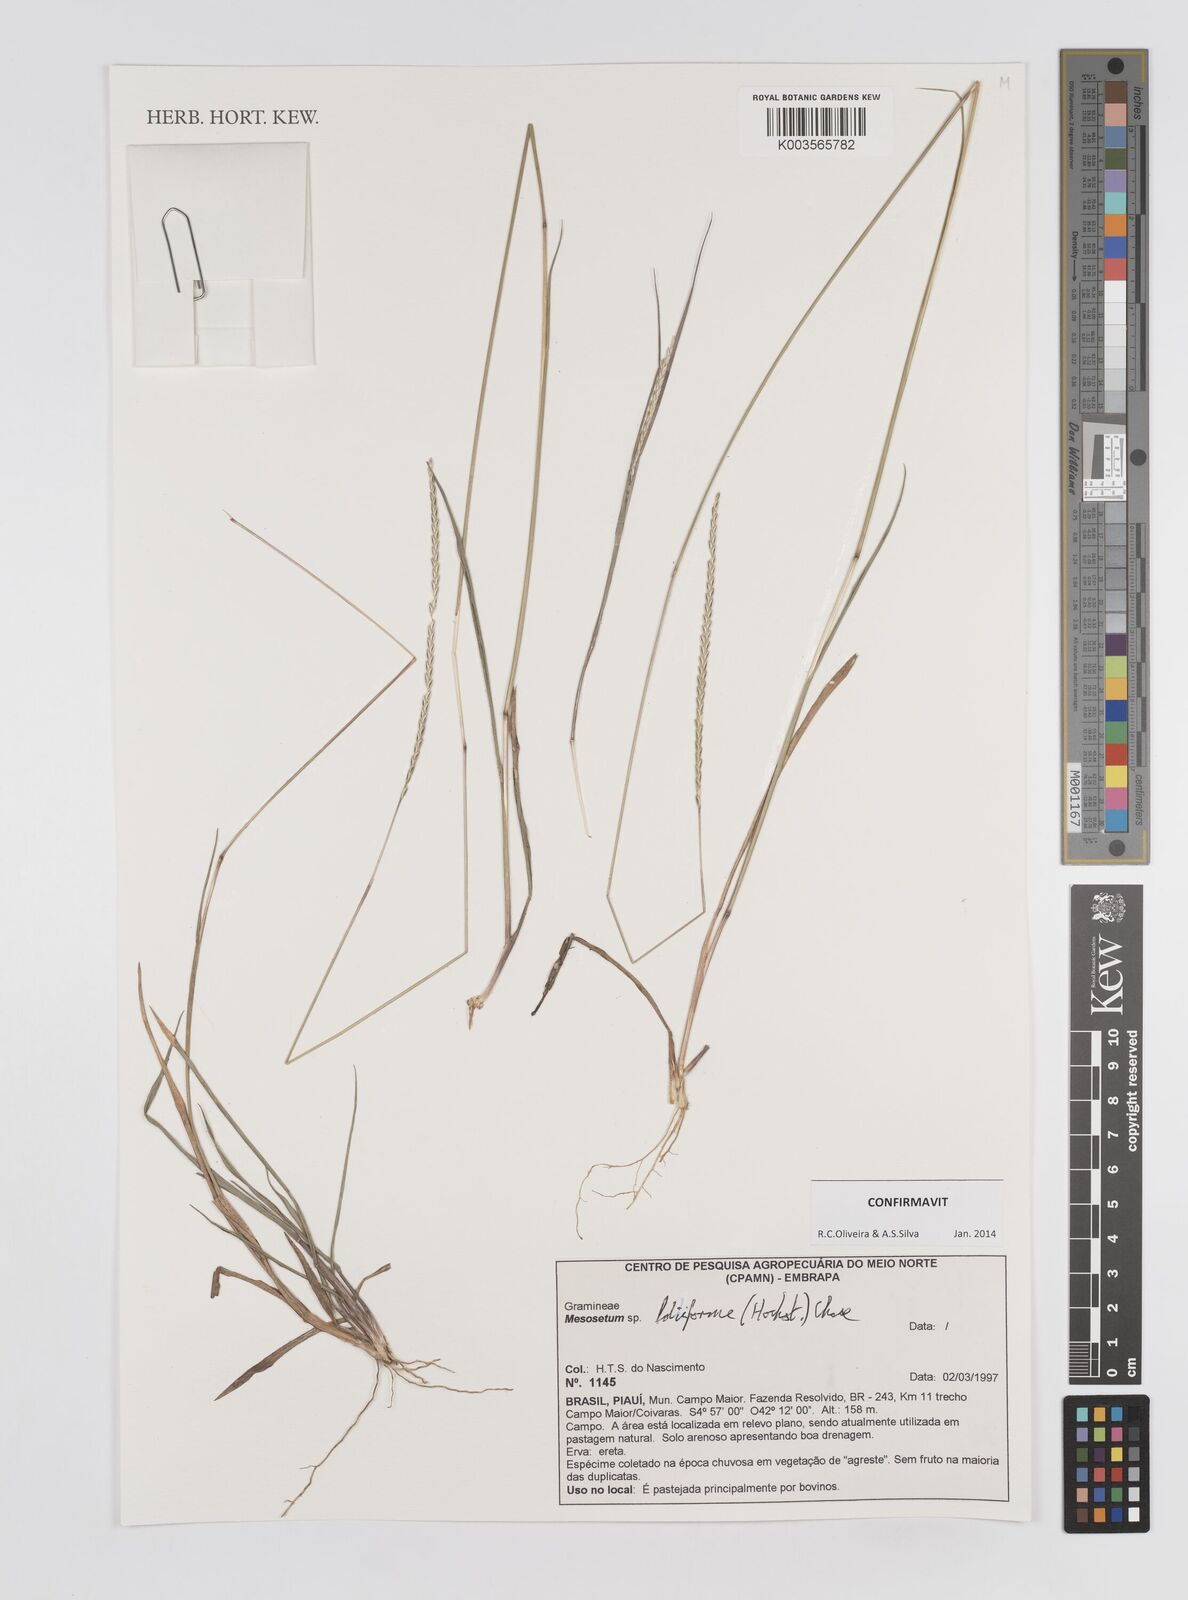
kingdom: Plantae
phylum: Tracheophyta
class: Liliopsida
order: Poales
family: Poaceae
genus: Mesosetum
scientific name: Mesosetum loliiforme
